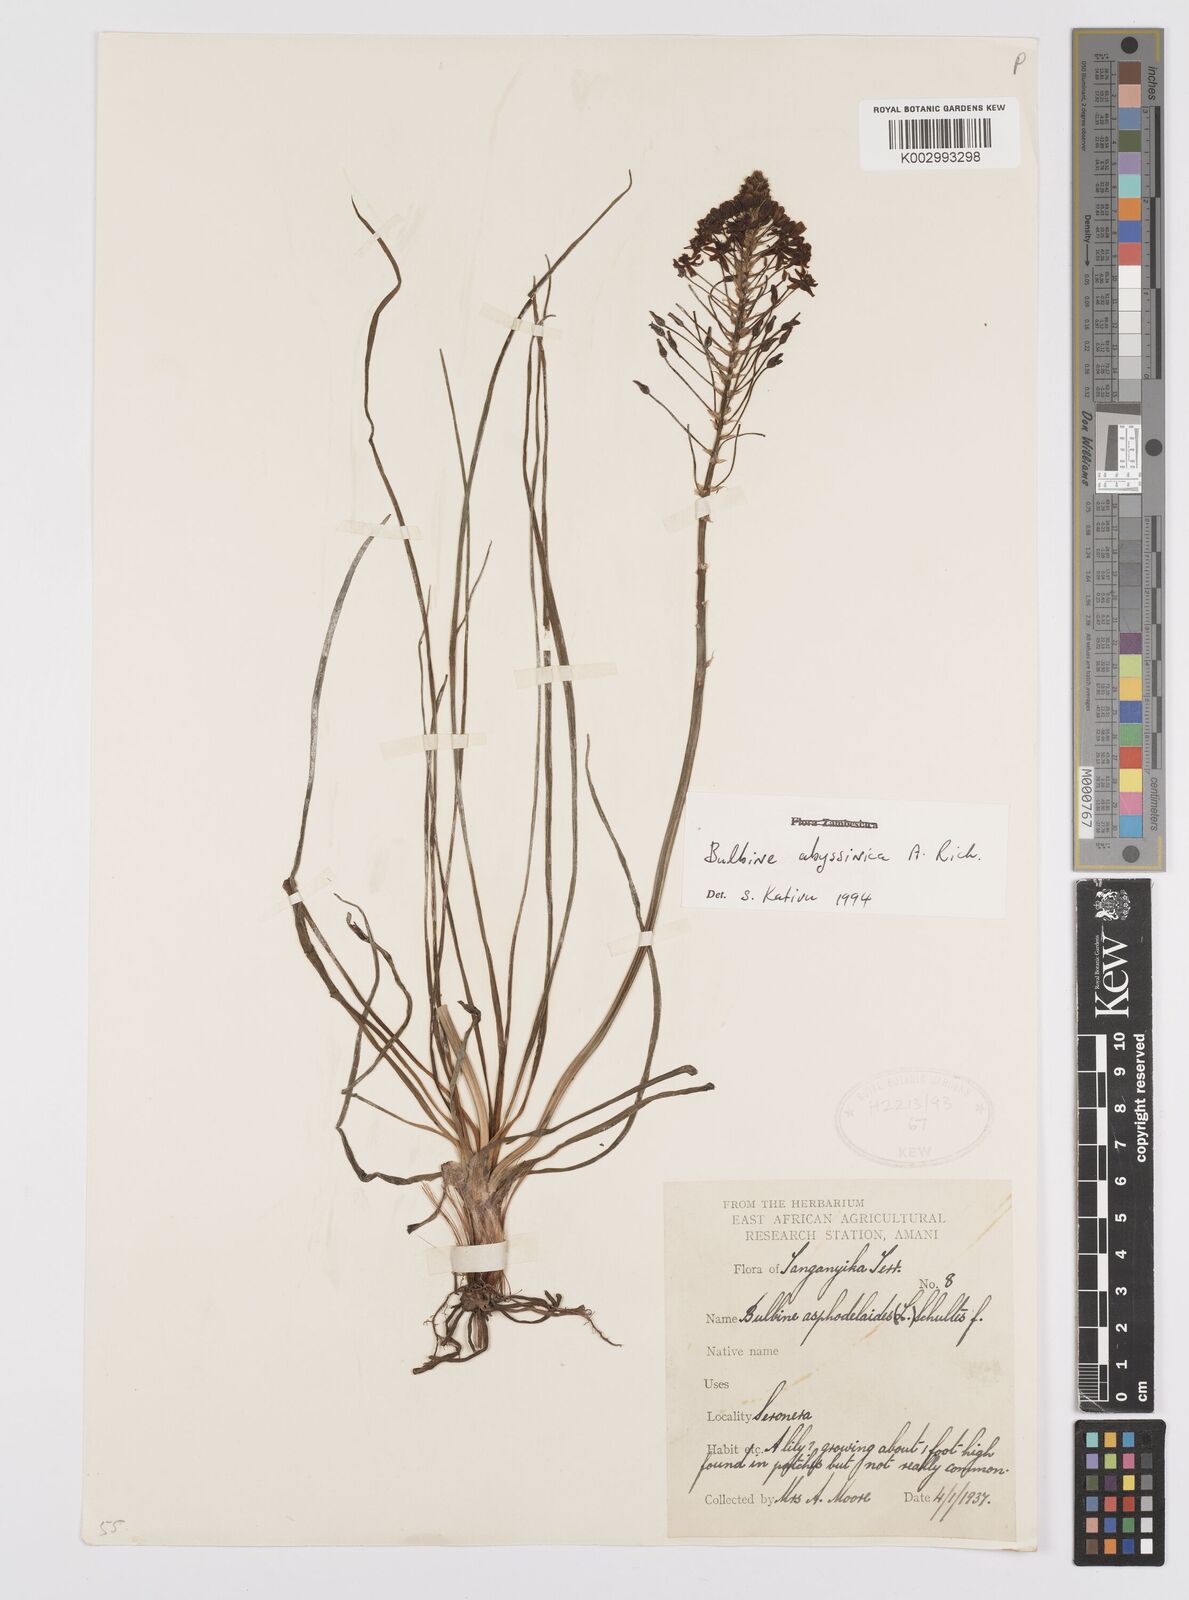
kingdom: Plantae
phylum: Tracheophyta
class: Liliopsida
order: Asparagales
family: Asphodelaceae
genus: Bulbine
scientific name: Bulbine abyssinica
